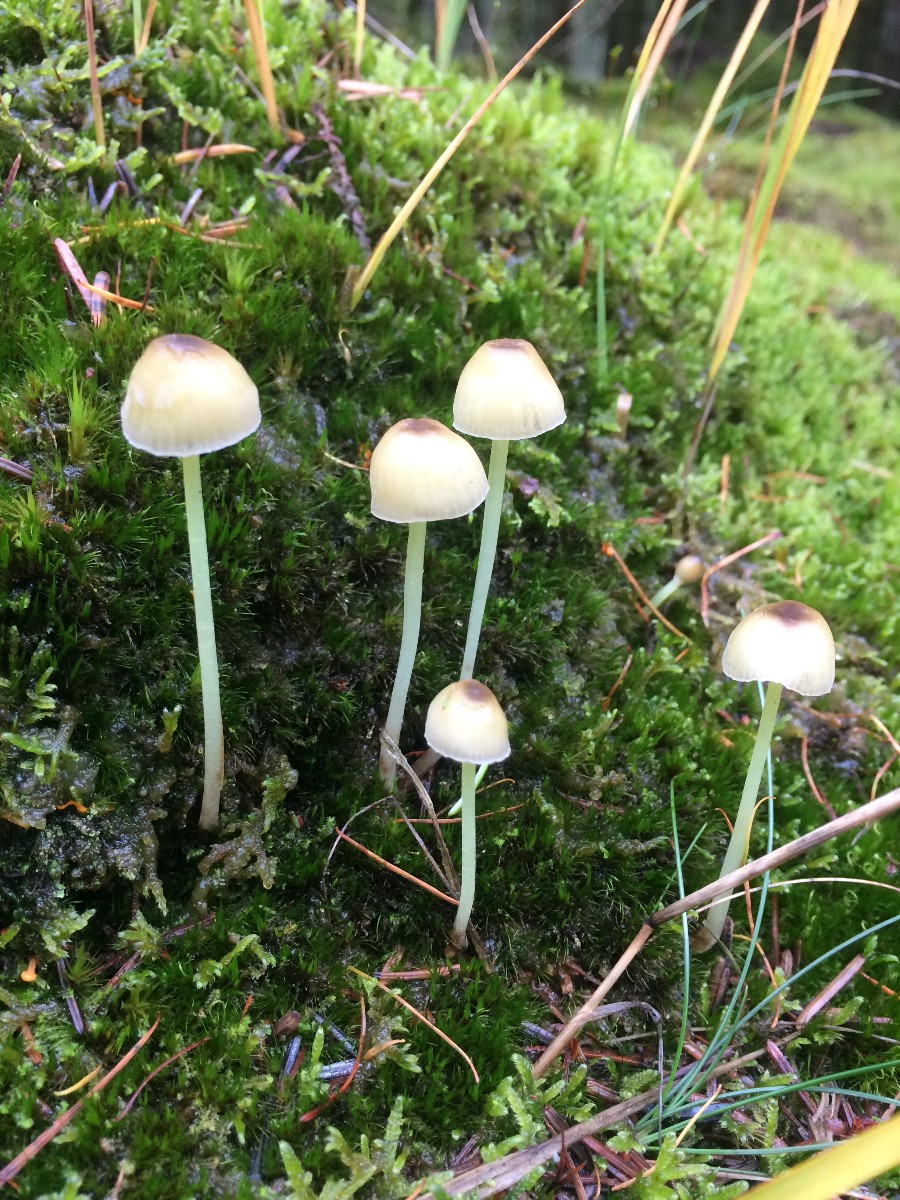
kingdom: Fungi
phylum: Basidiomycota
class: Agaricomycetes
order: Agaricales
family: Mycenaceae
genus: Mycena
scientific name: Mycena epipterygia
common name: gulstokket huesvamp
